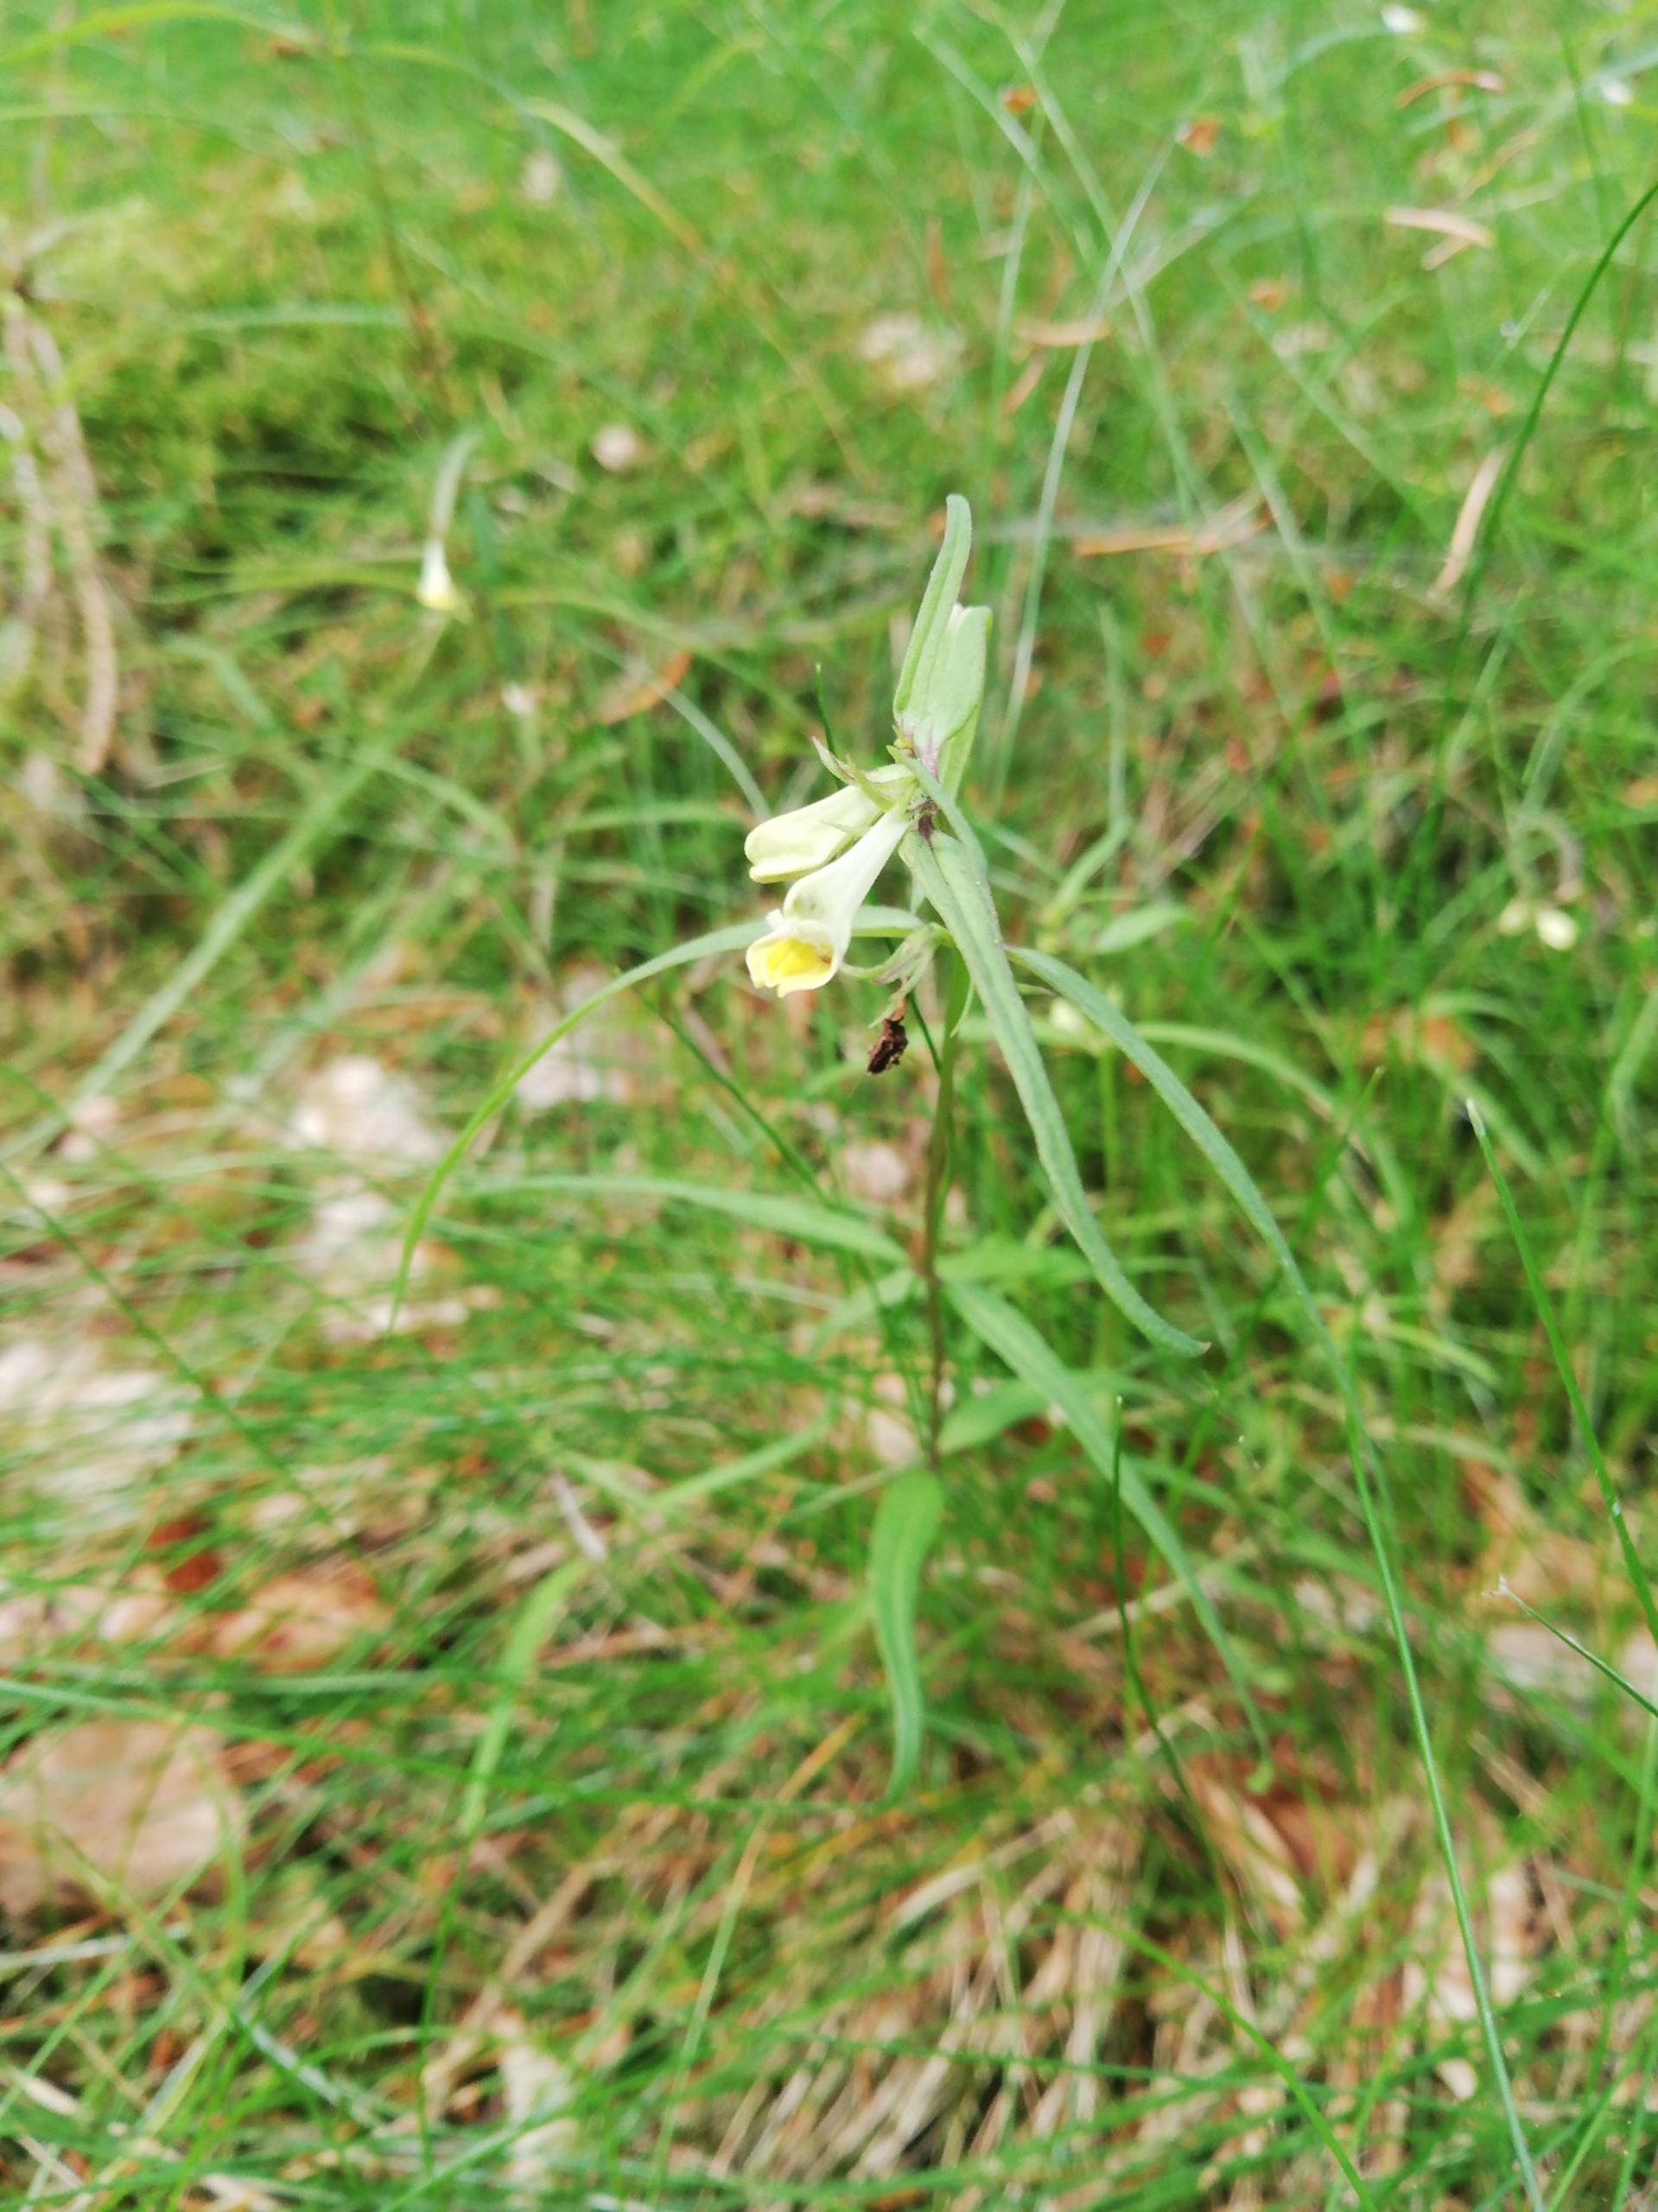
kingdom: Plantae
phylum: Tracheophyta
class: Magnoliopsida
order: Lamiales
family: Orobanchaceae
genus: Melampyrum
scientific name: Melampyrum pratense
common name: Almindelig kohvede
